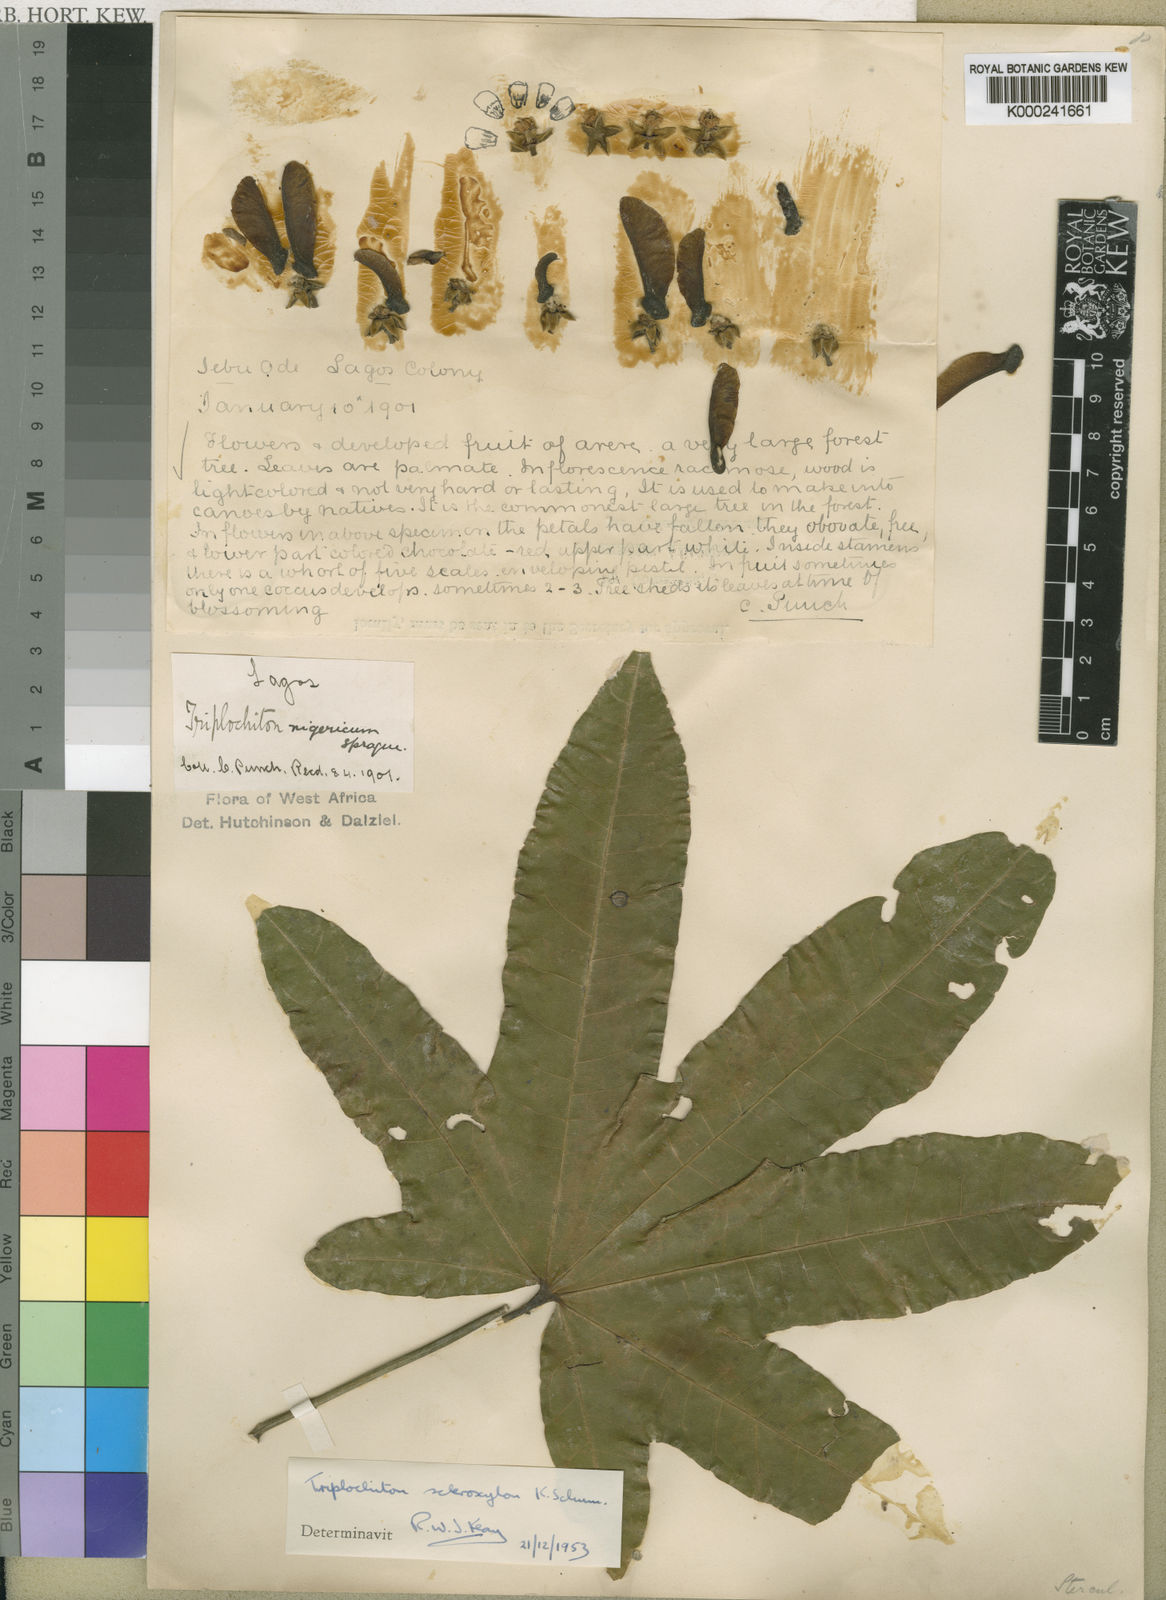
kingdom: Plantae
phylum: Tracheophyta
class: Magnoliopsida
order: Malvales
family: Malvaceae
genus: Triplochiton
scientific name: Triplochiton scleroxylon
